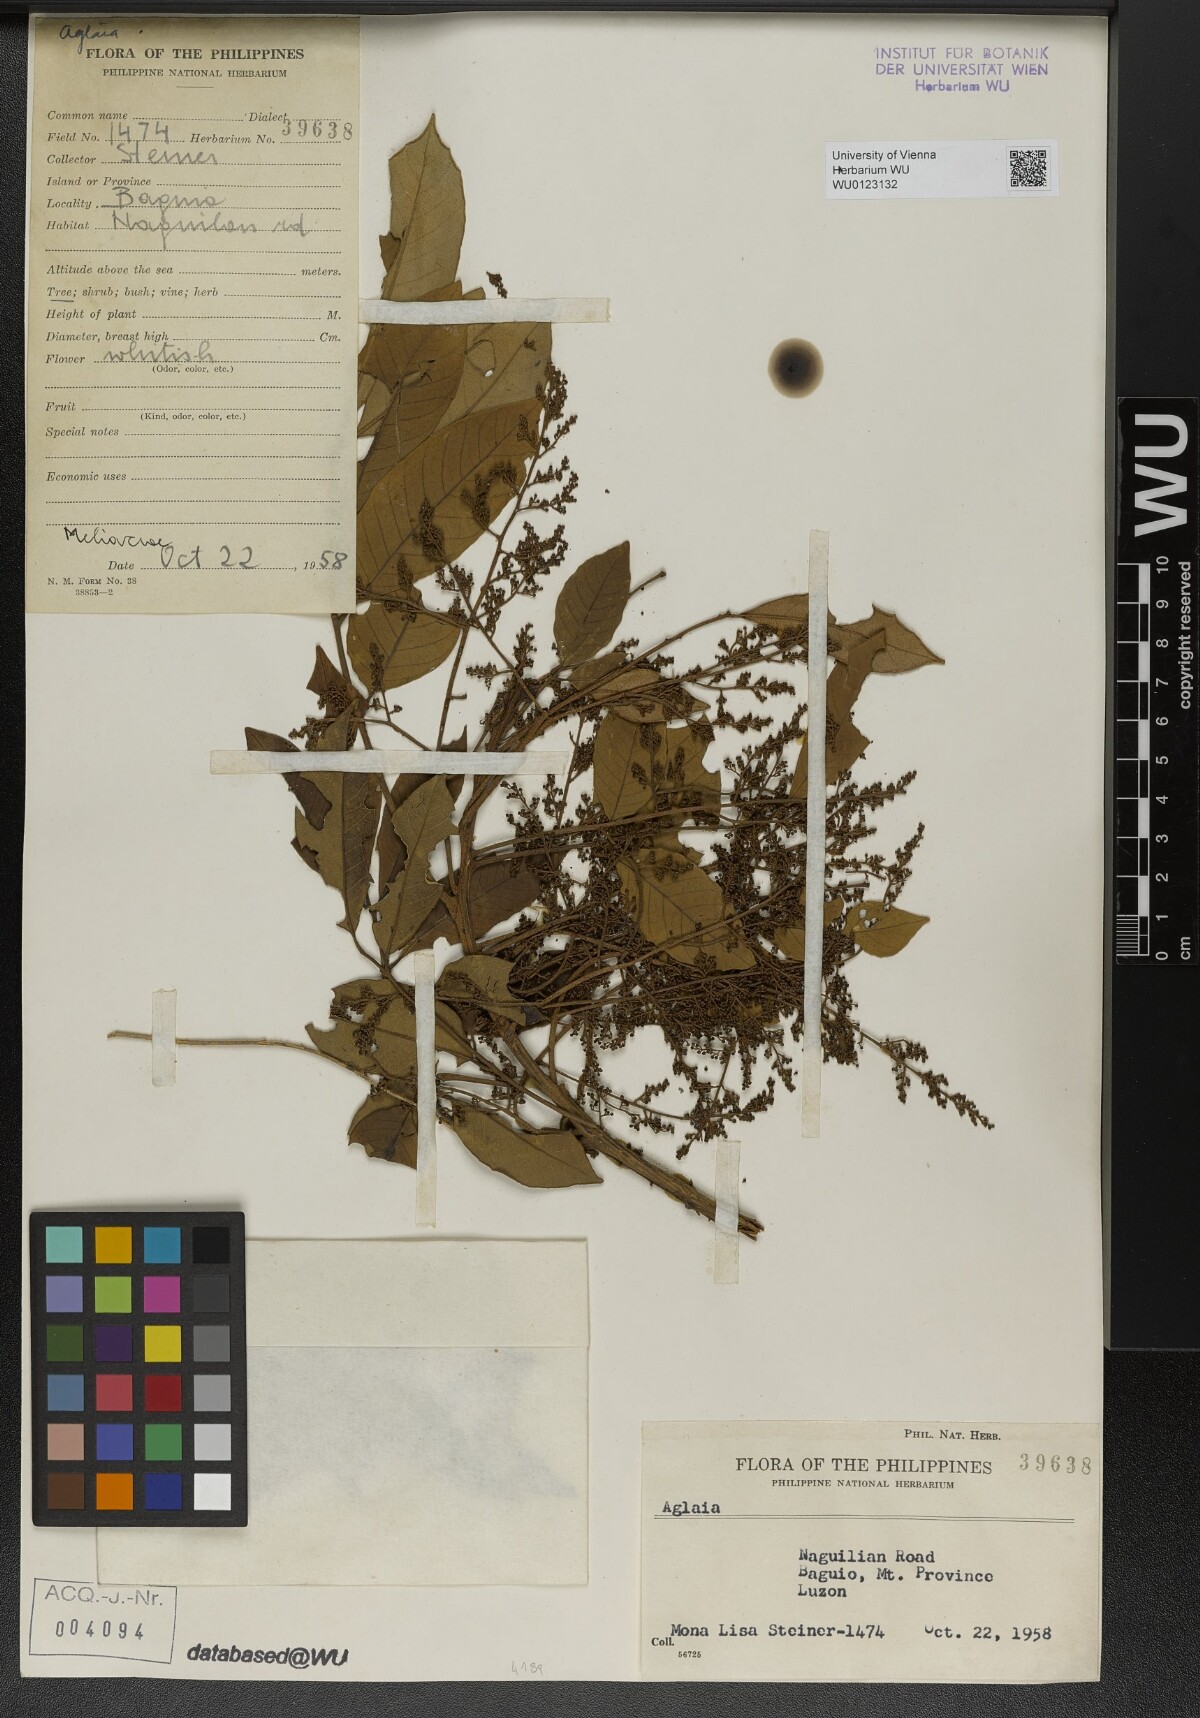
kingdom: Plantae
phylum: Tracheophyta
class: Magnoliopsida
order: Sapindales
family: Meliaceae
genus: Aglaia
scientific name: Aglaia
